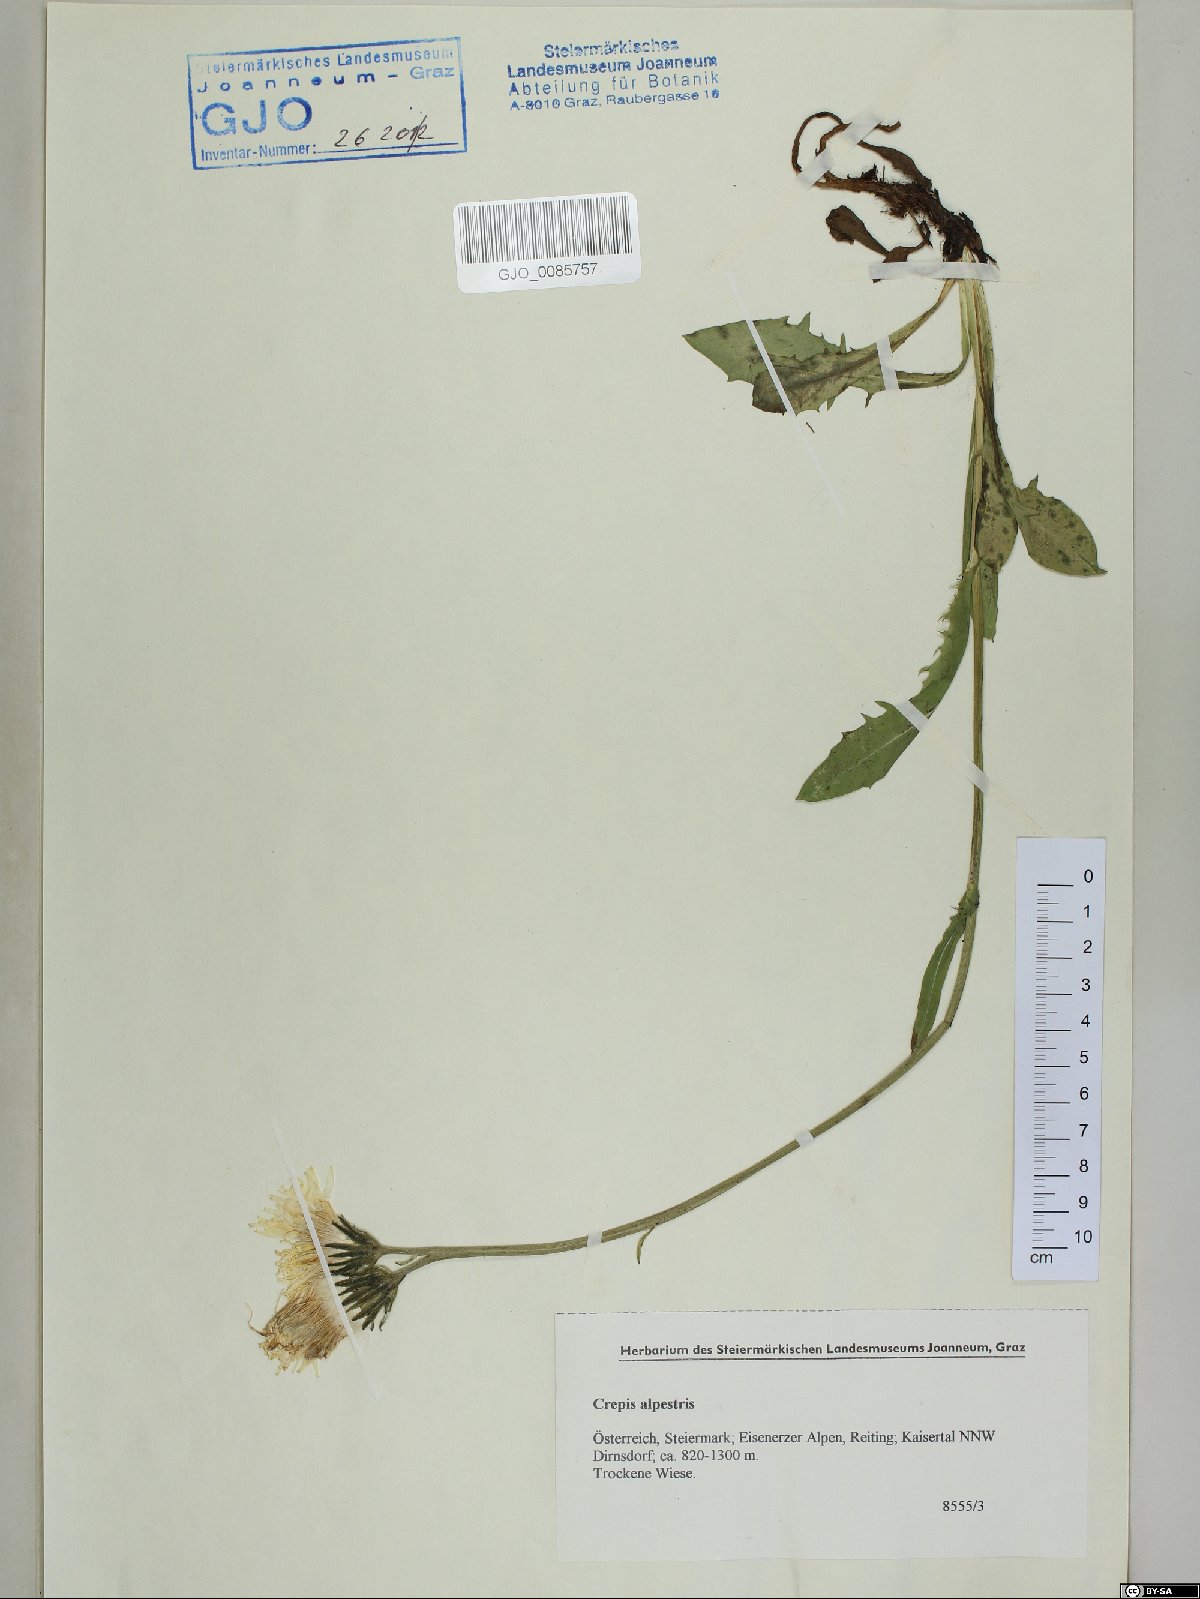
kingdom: Plantae
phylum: Tracheophyta
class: Magnoliopsida
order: Asterales
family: Asteraceae
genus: Crepis
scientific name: Crepis alpestris
